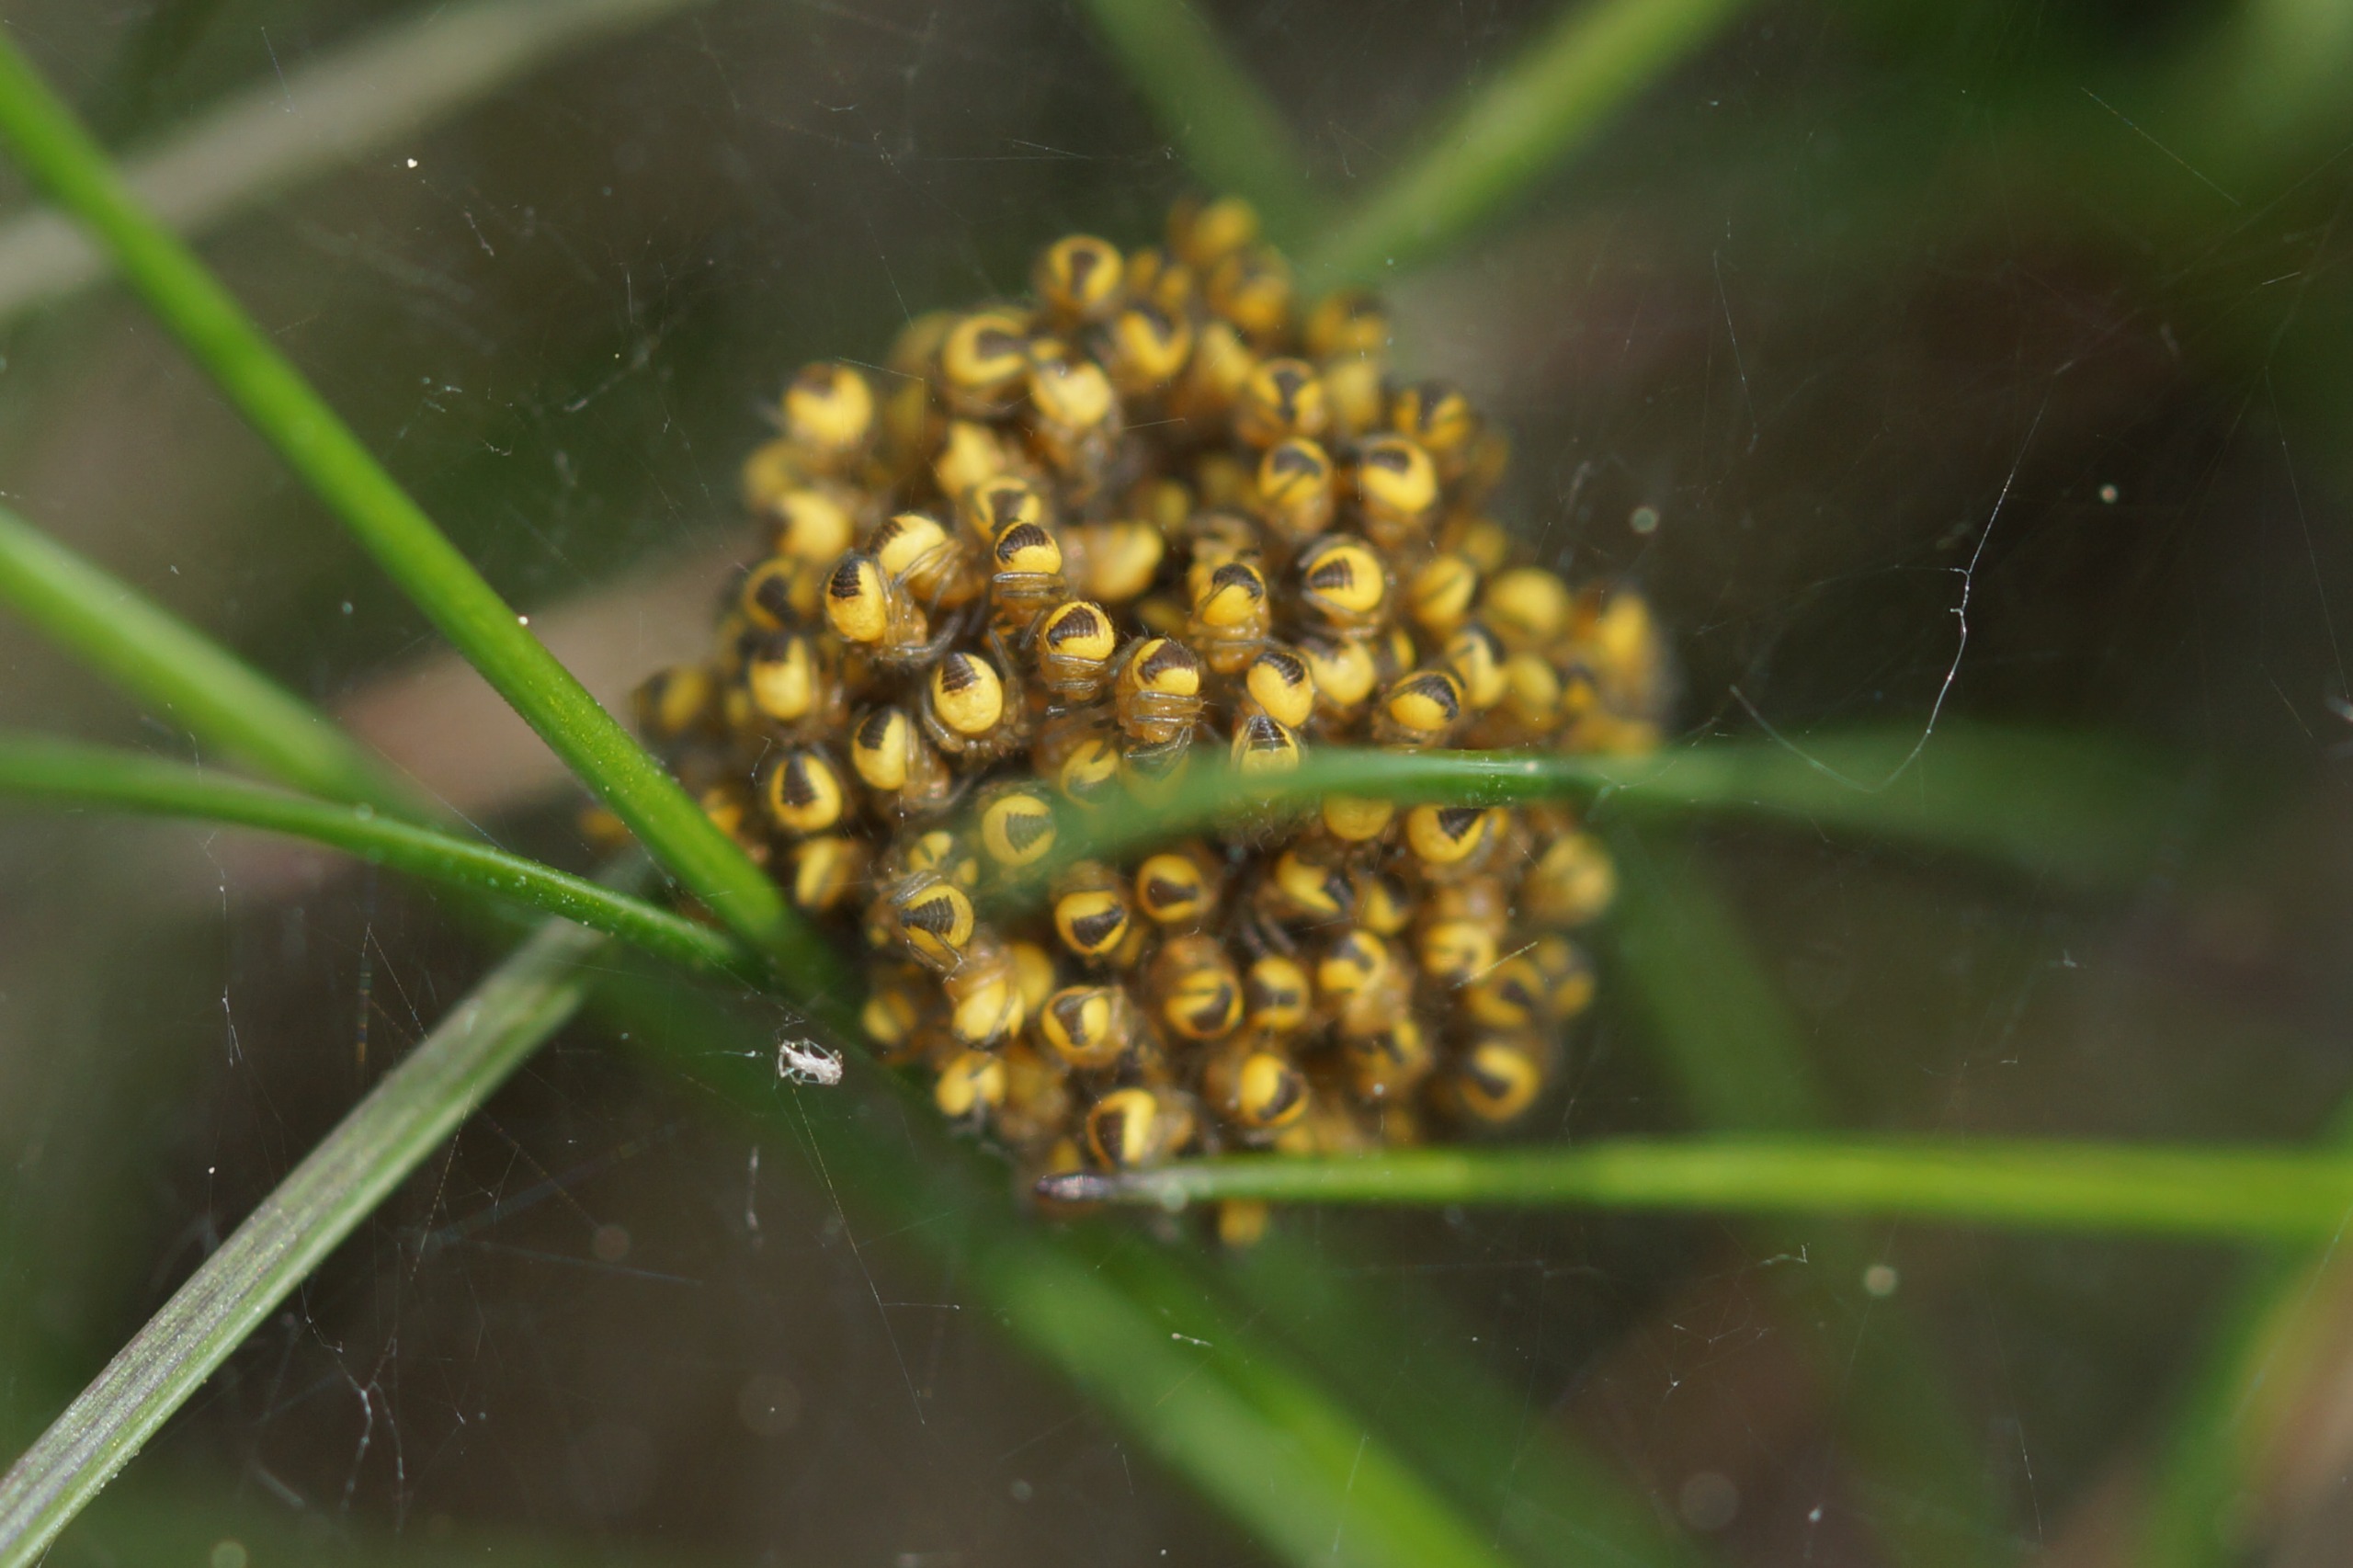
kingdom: Animalia
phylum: Arthropoda
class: Arachnida
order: Araneae
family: Araneidae
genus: Araneus
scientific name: Araneus diadematus
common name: Korsedderkop
